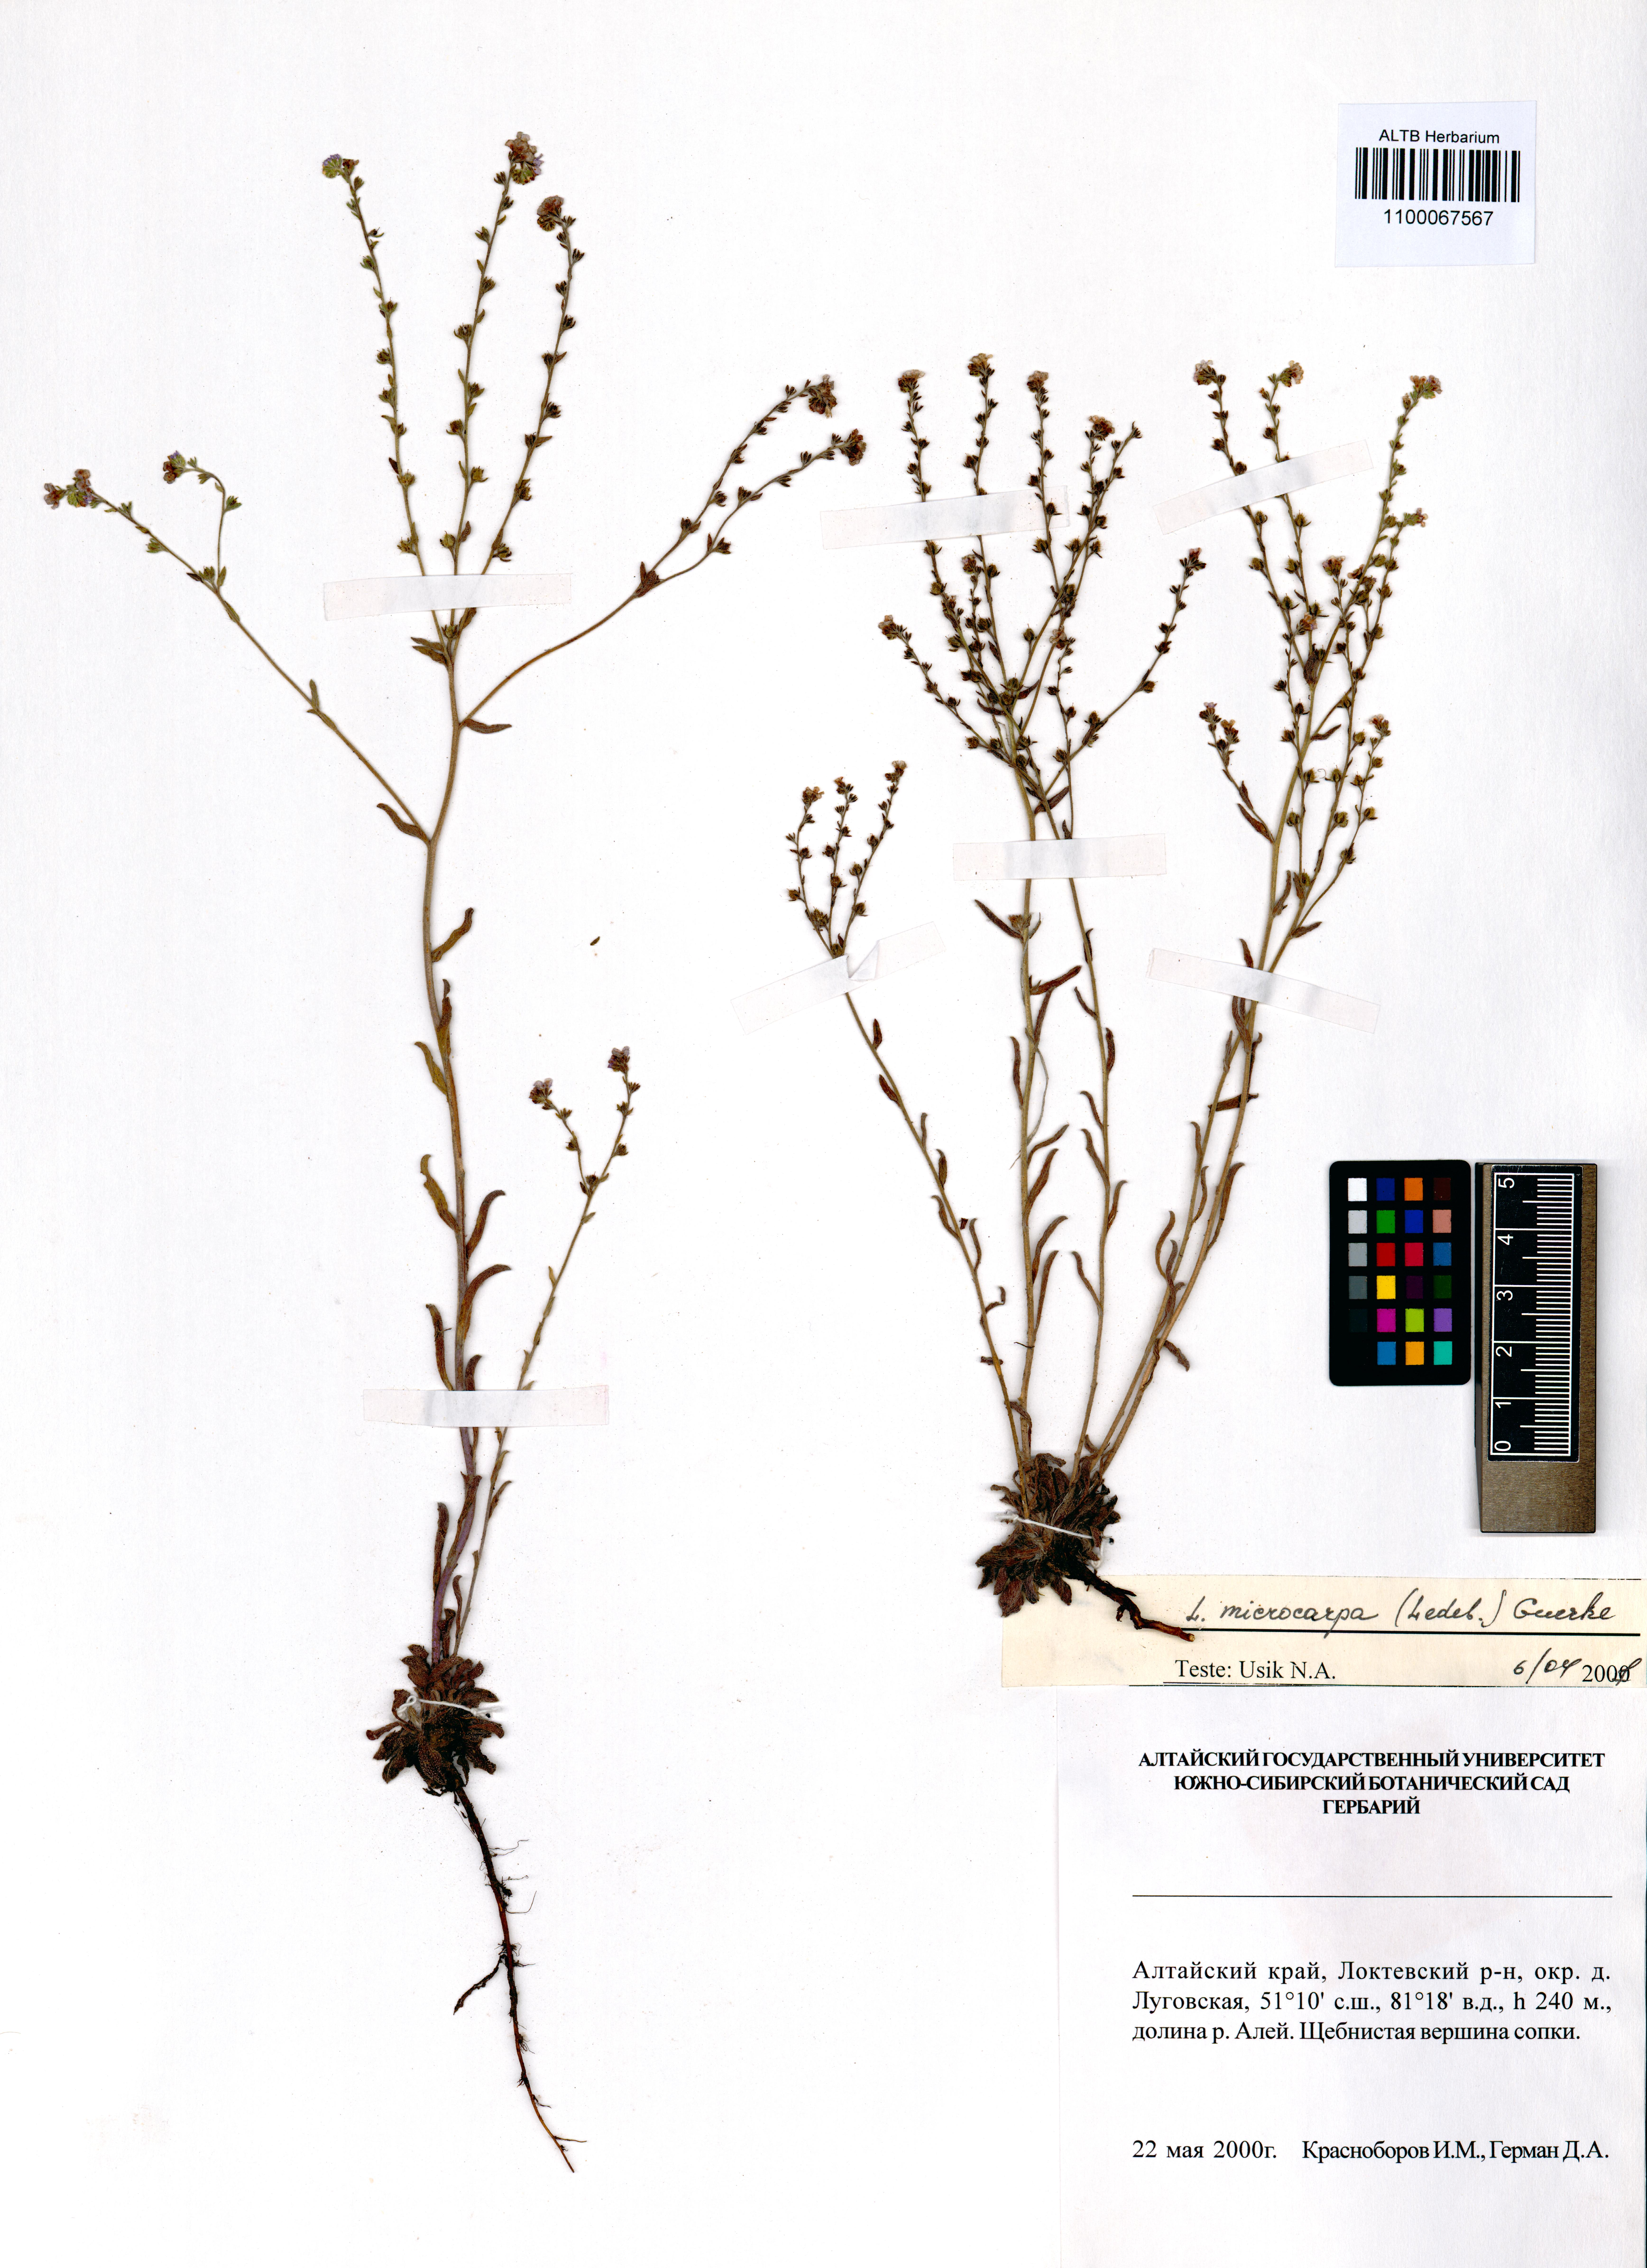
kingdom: Plantae
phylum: Tracheophyta
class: Magnoliopsida
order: Boraginales
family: Boraginaceae
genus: Lappula
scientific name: Lappula microcarpa
